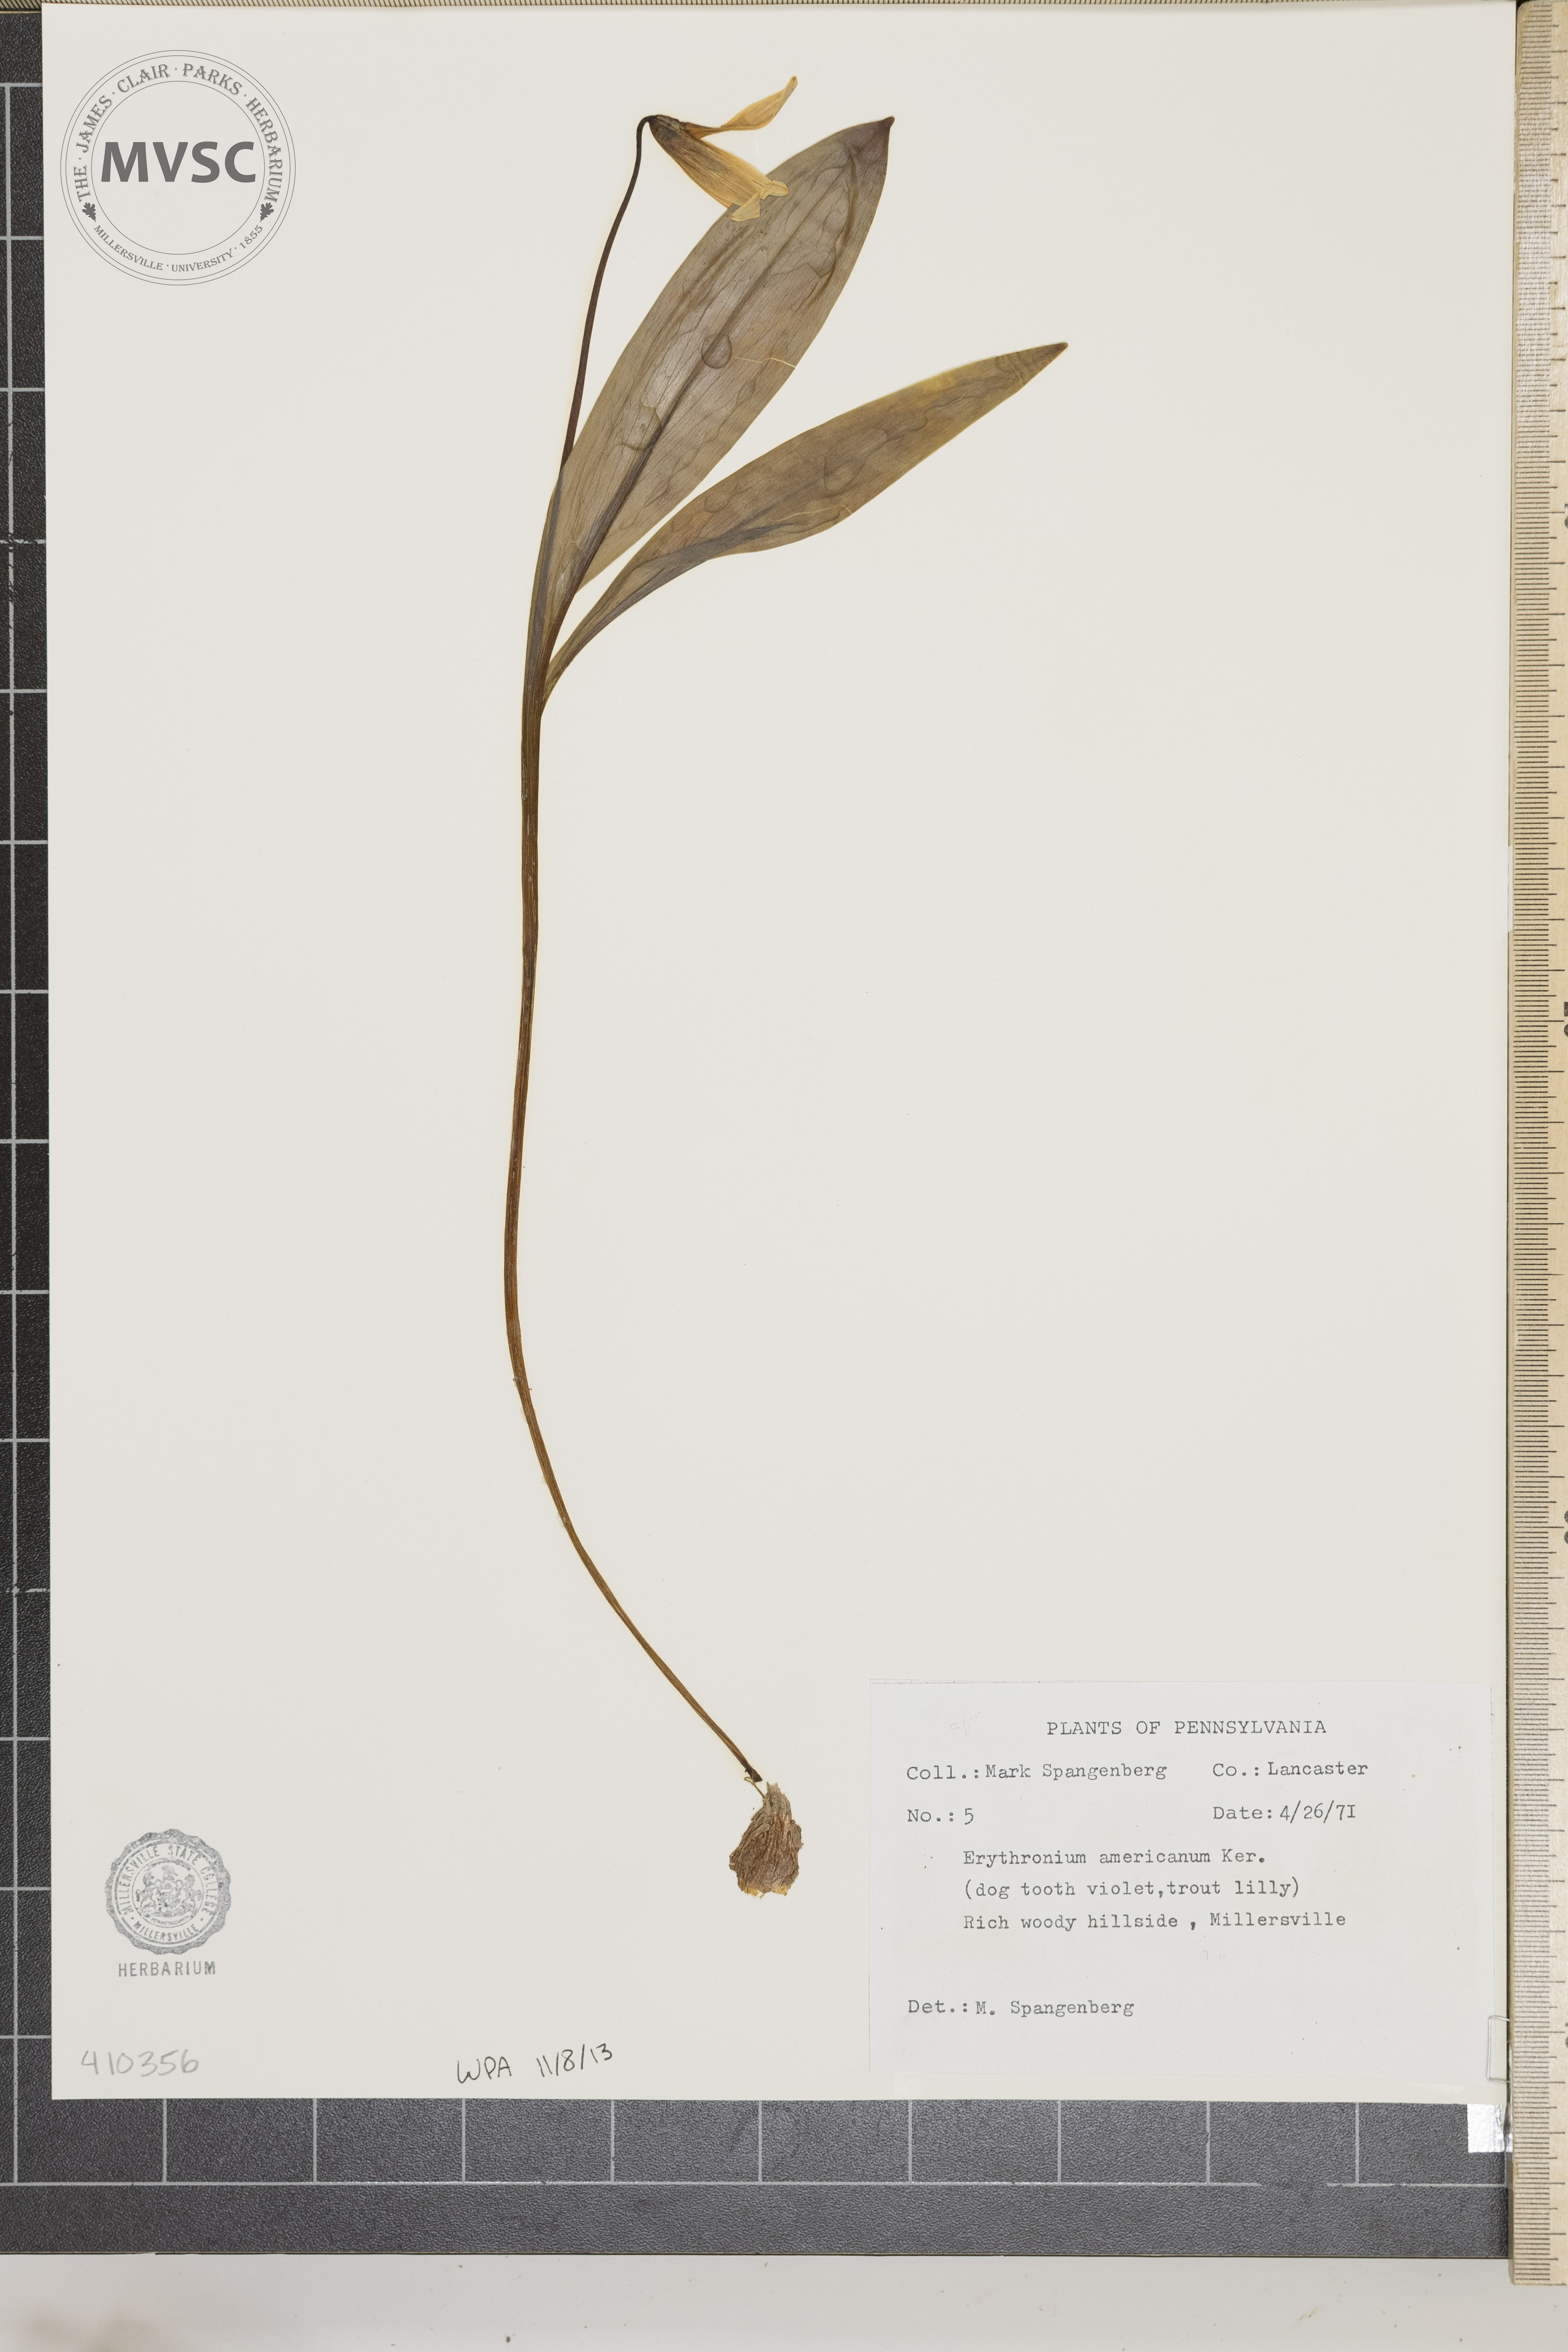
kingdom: Plantae
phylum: Tracheophyta
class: Liliopsida
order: Liliales
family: Liliaceae
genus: Erythronium
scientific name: Erythronium americanum
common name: Yellow adder's-tongue
